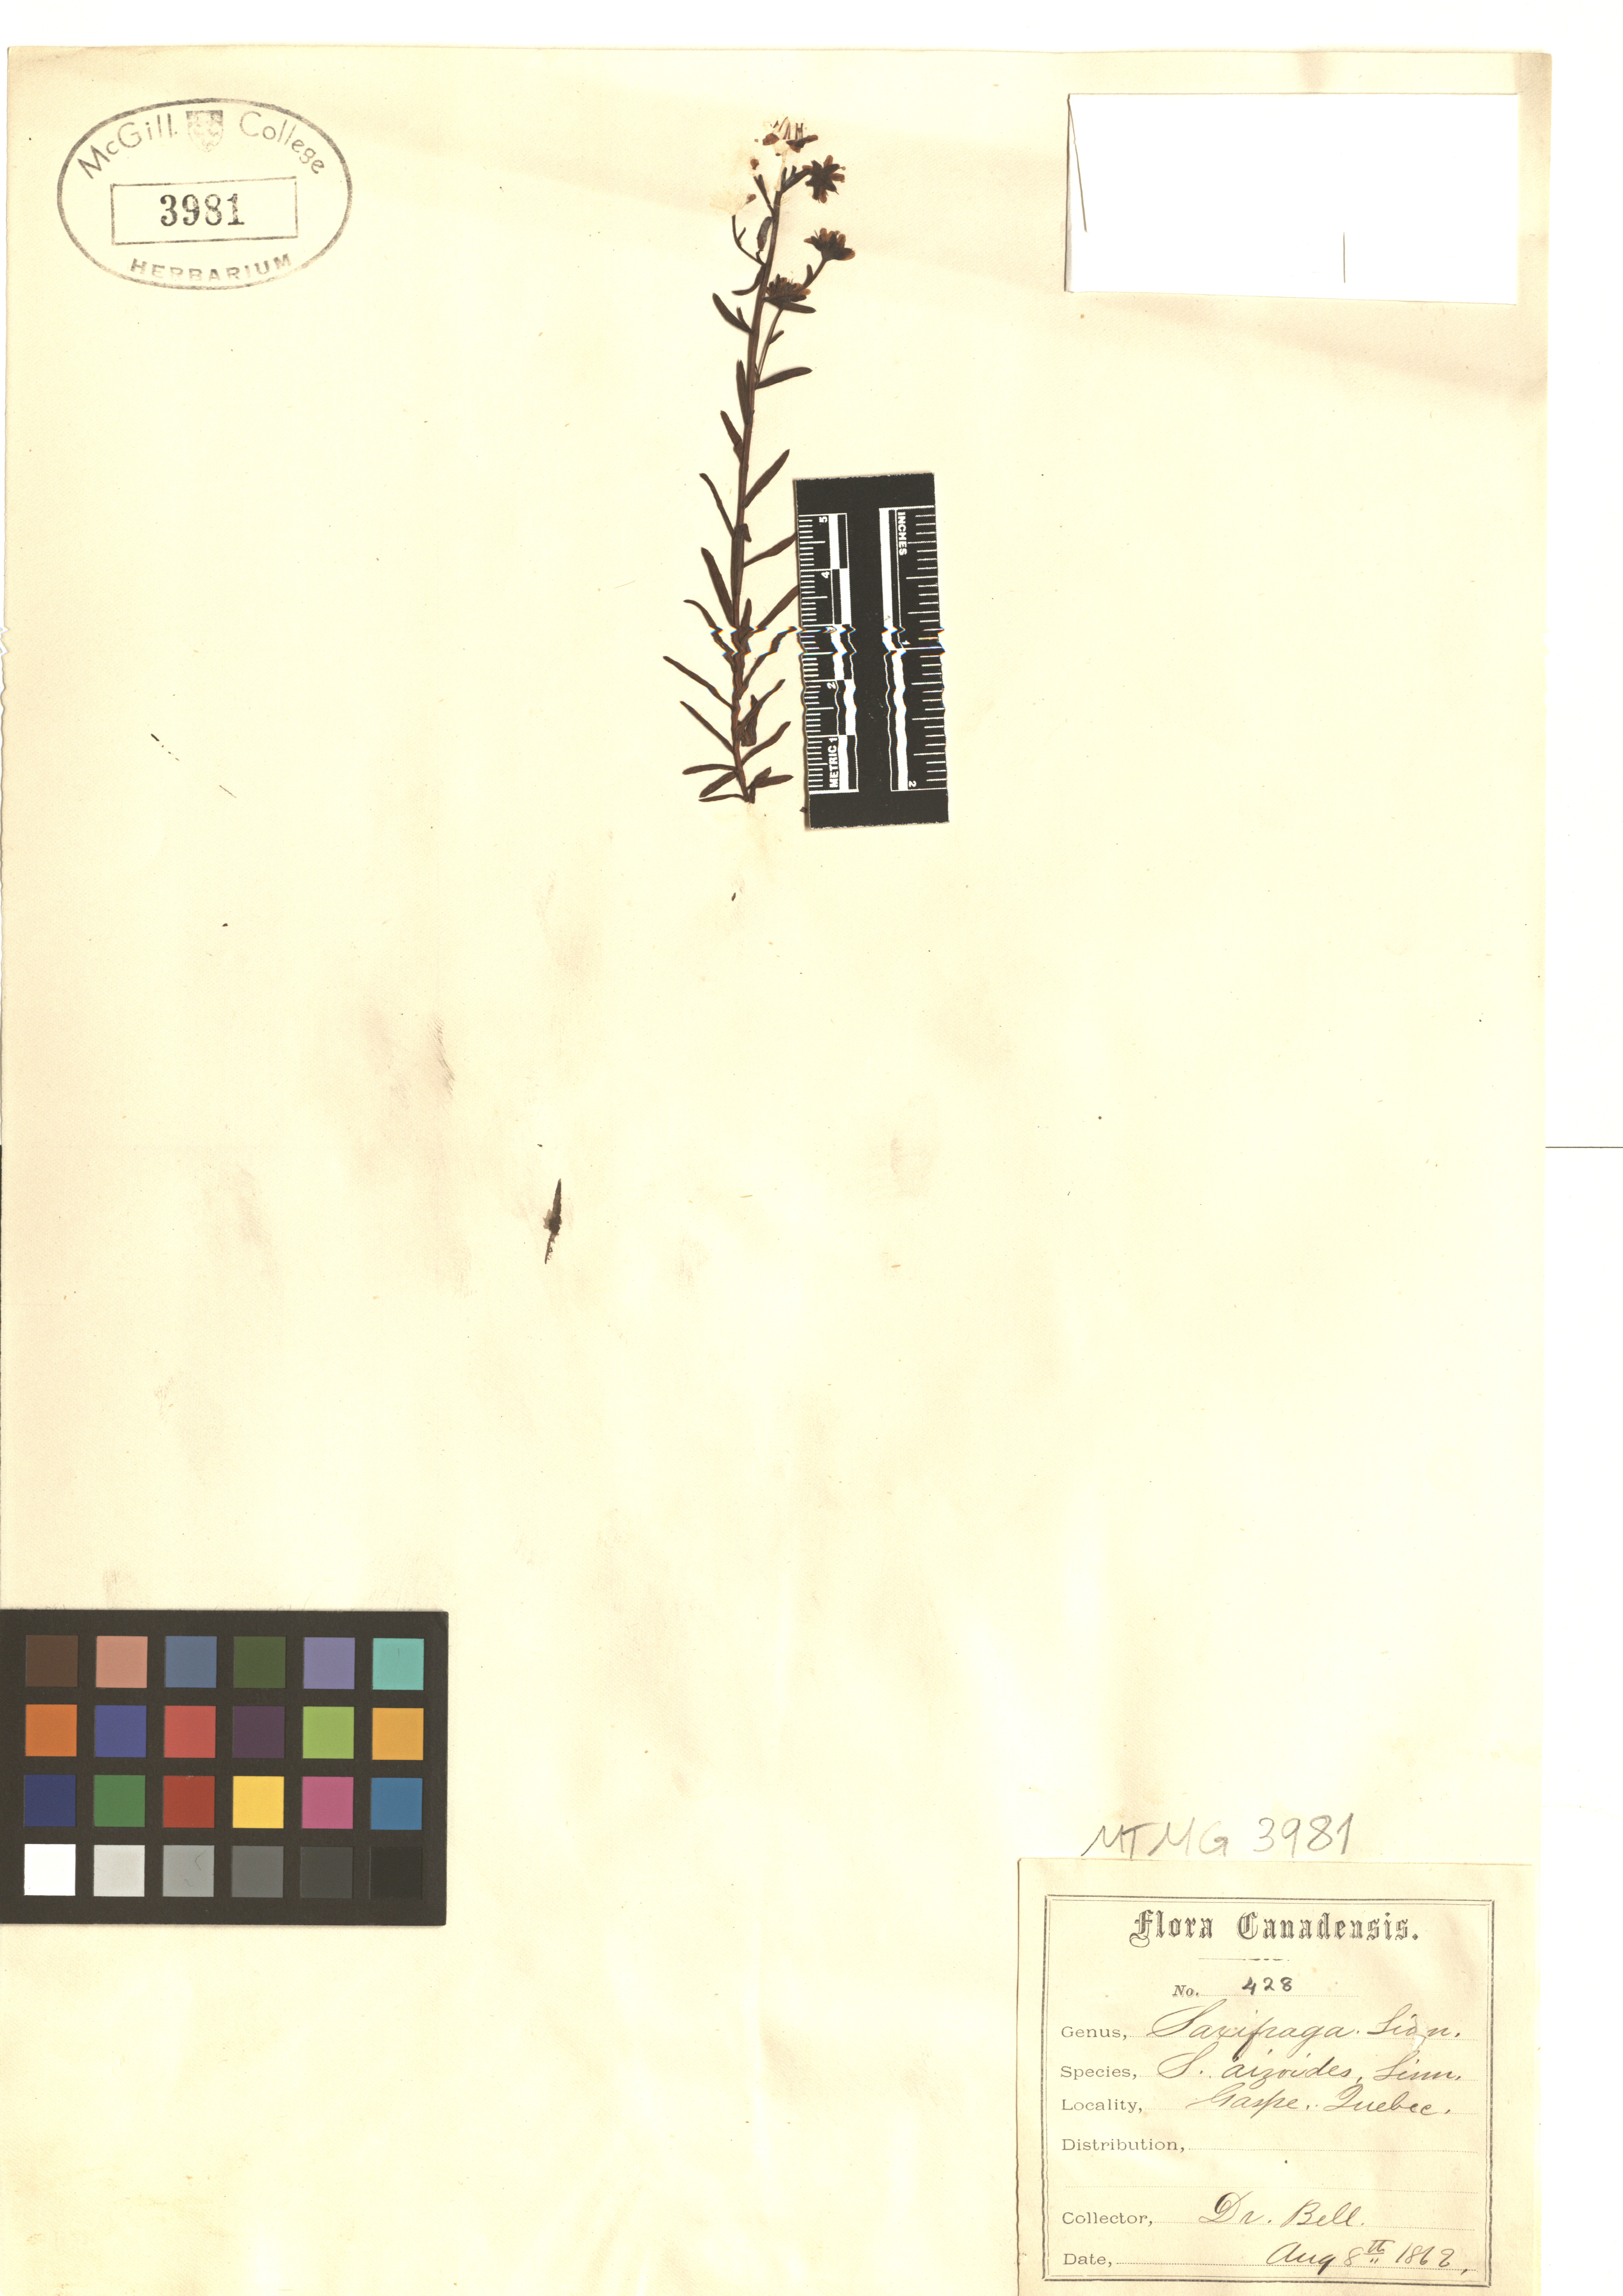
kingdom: Plantae
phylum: Tracheophyta
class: Magnoliopsida
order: Saxifragales
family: Saxifragaceae
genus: Saxifraga
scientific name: Saxifraga aizoides
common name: Yellow mountain saxifrage
